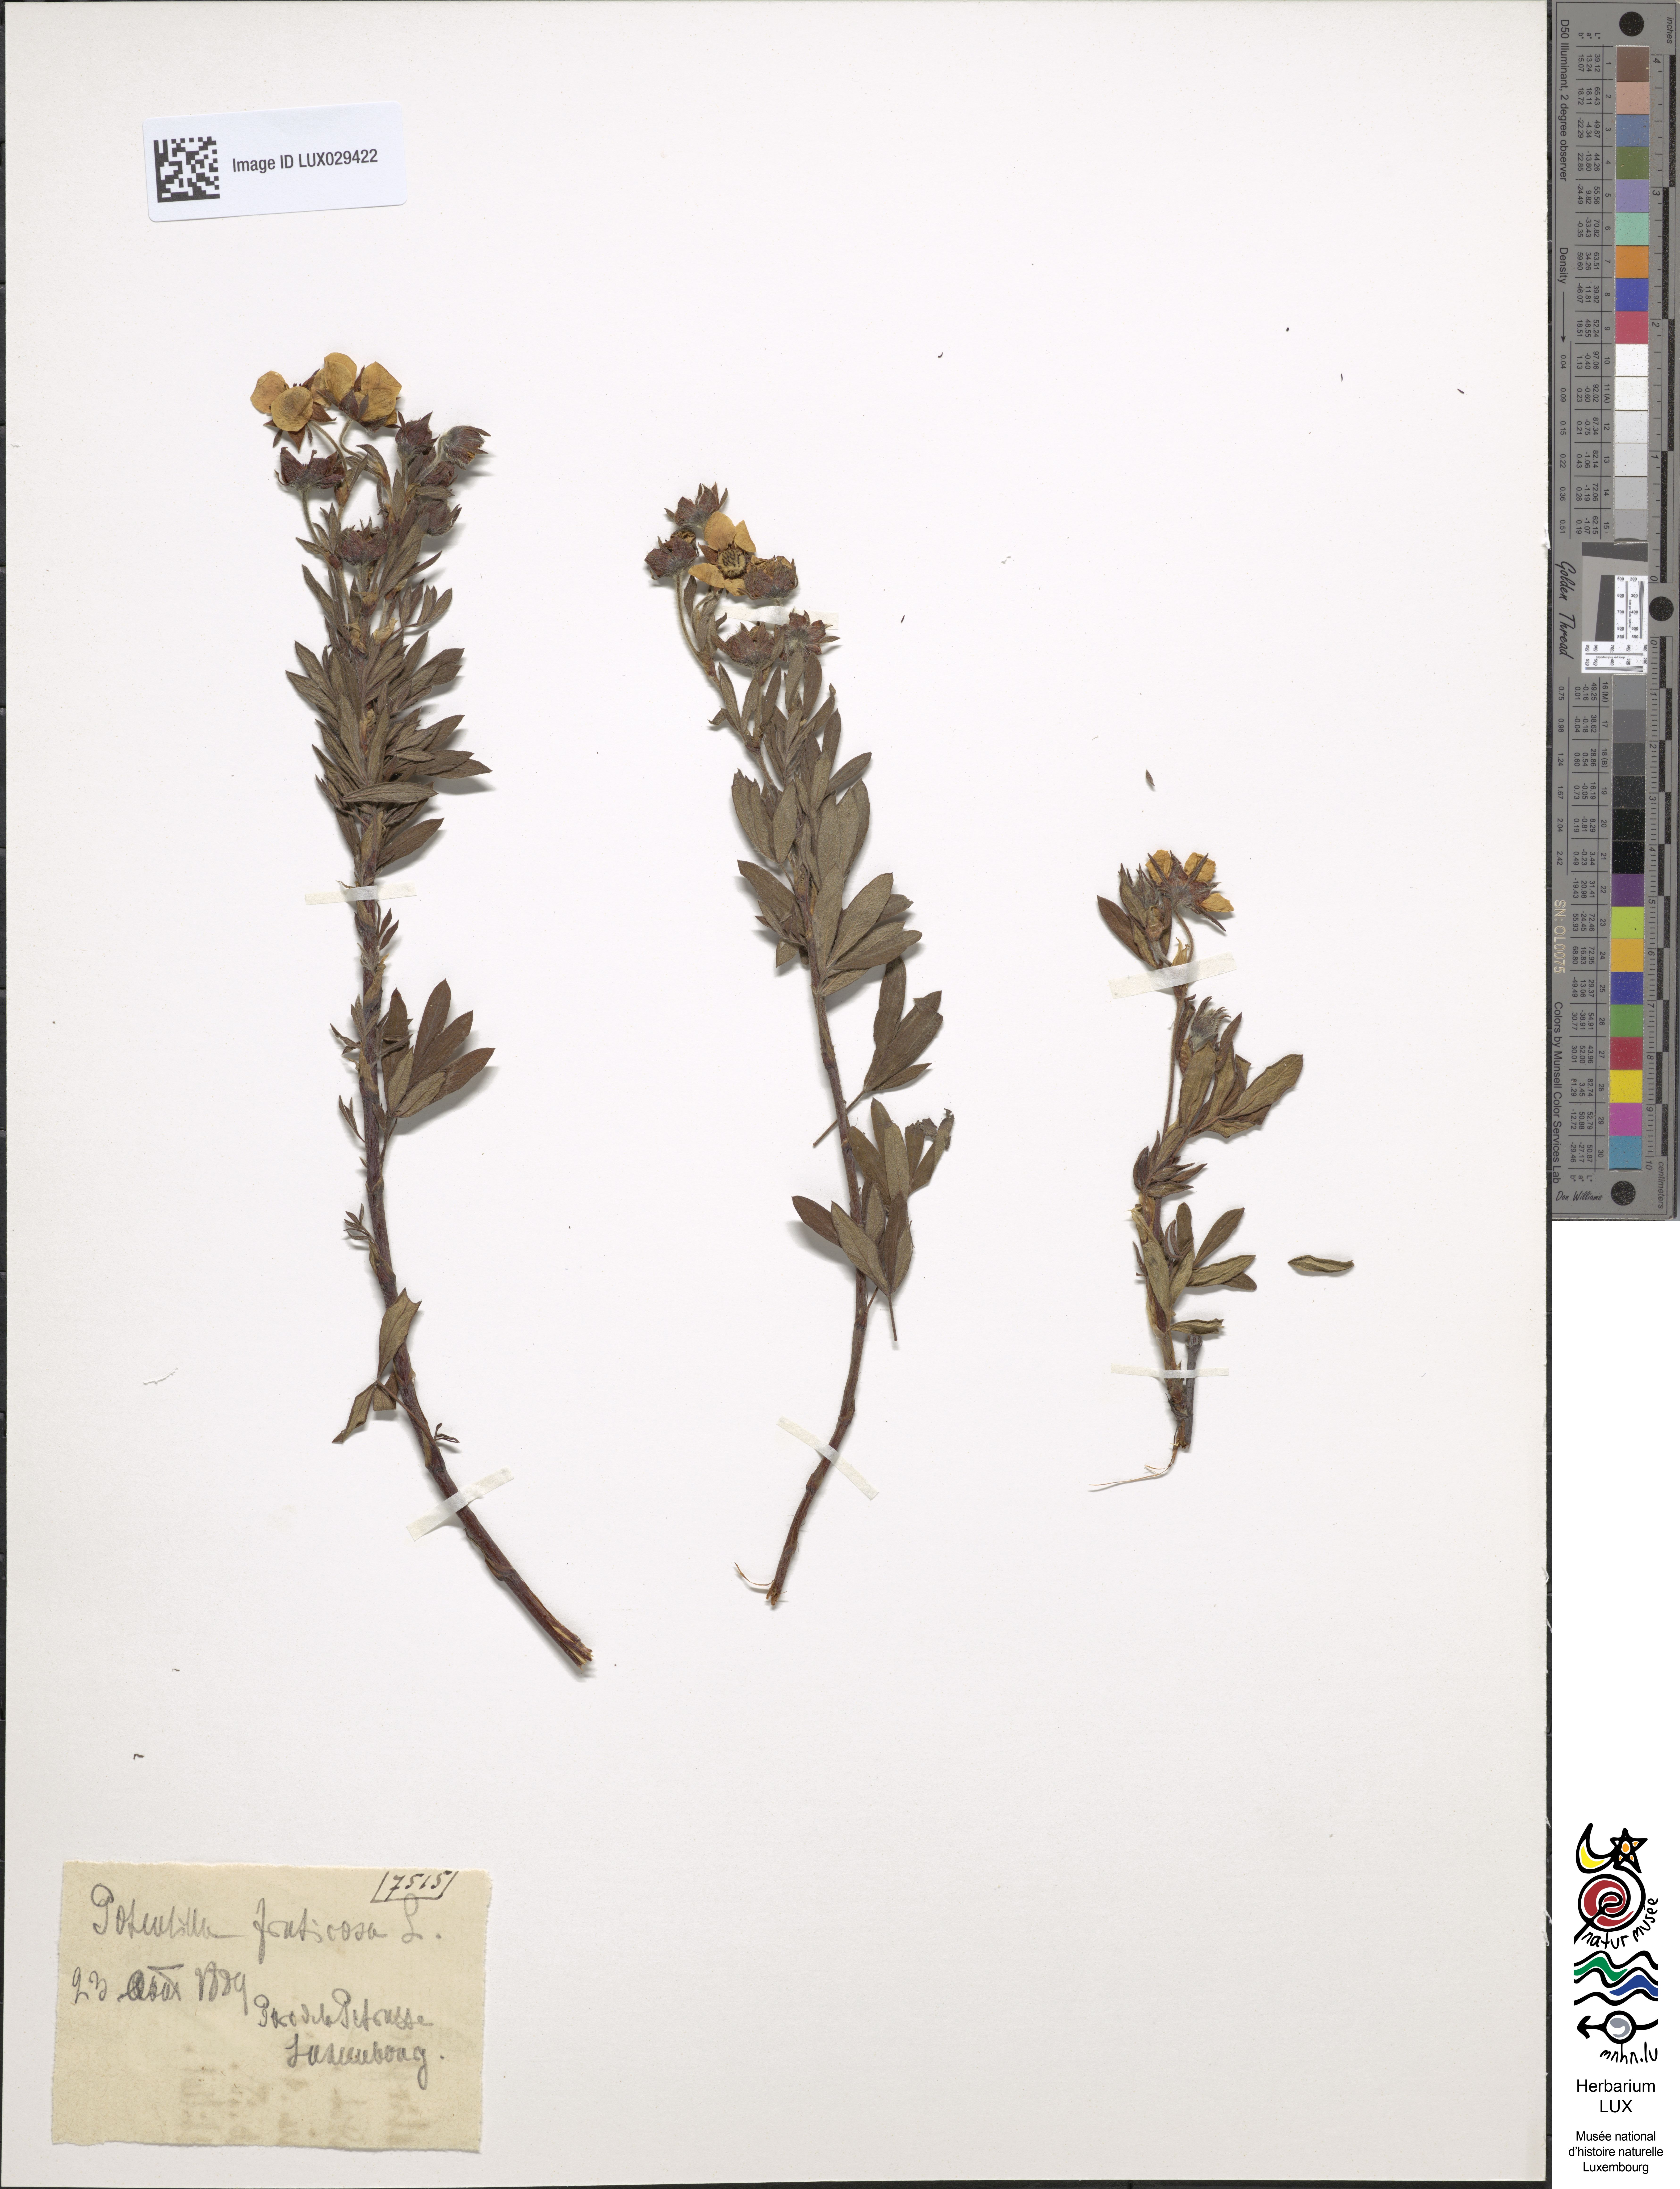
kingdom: Plantae
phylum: Tracheophyta
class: Magnoliopsida
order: Rosales
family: Rosaceae
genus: Dasiphora
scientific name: Dasiphora fruticosa
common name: Shrubby cinquefoil
